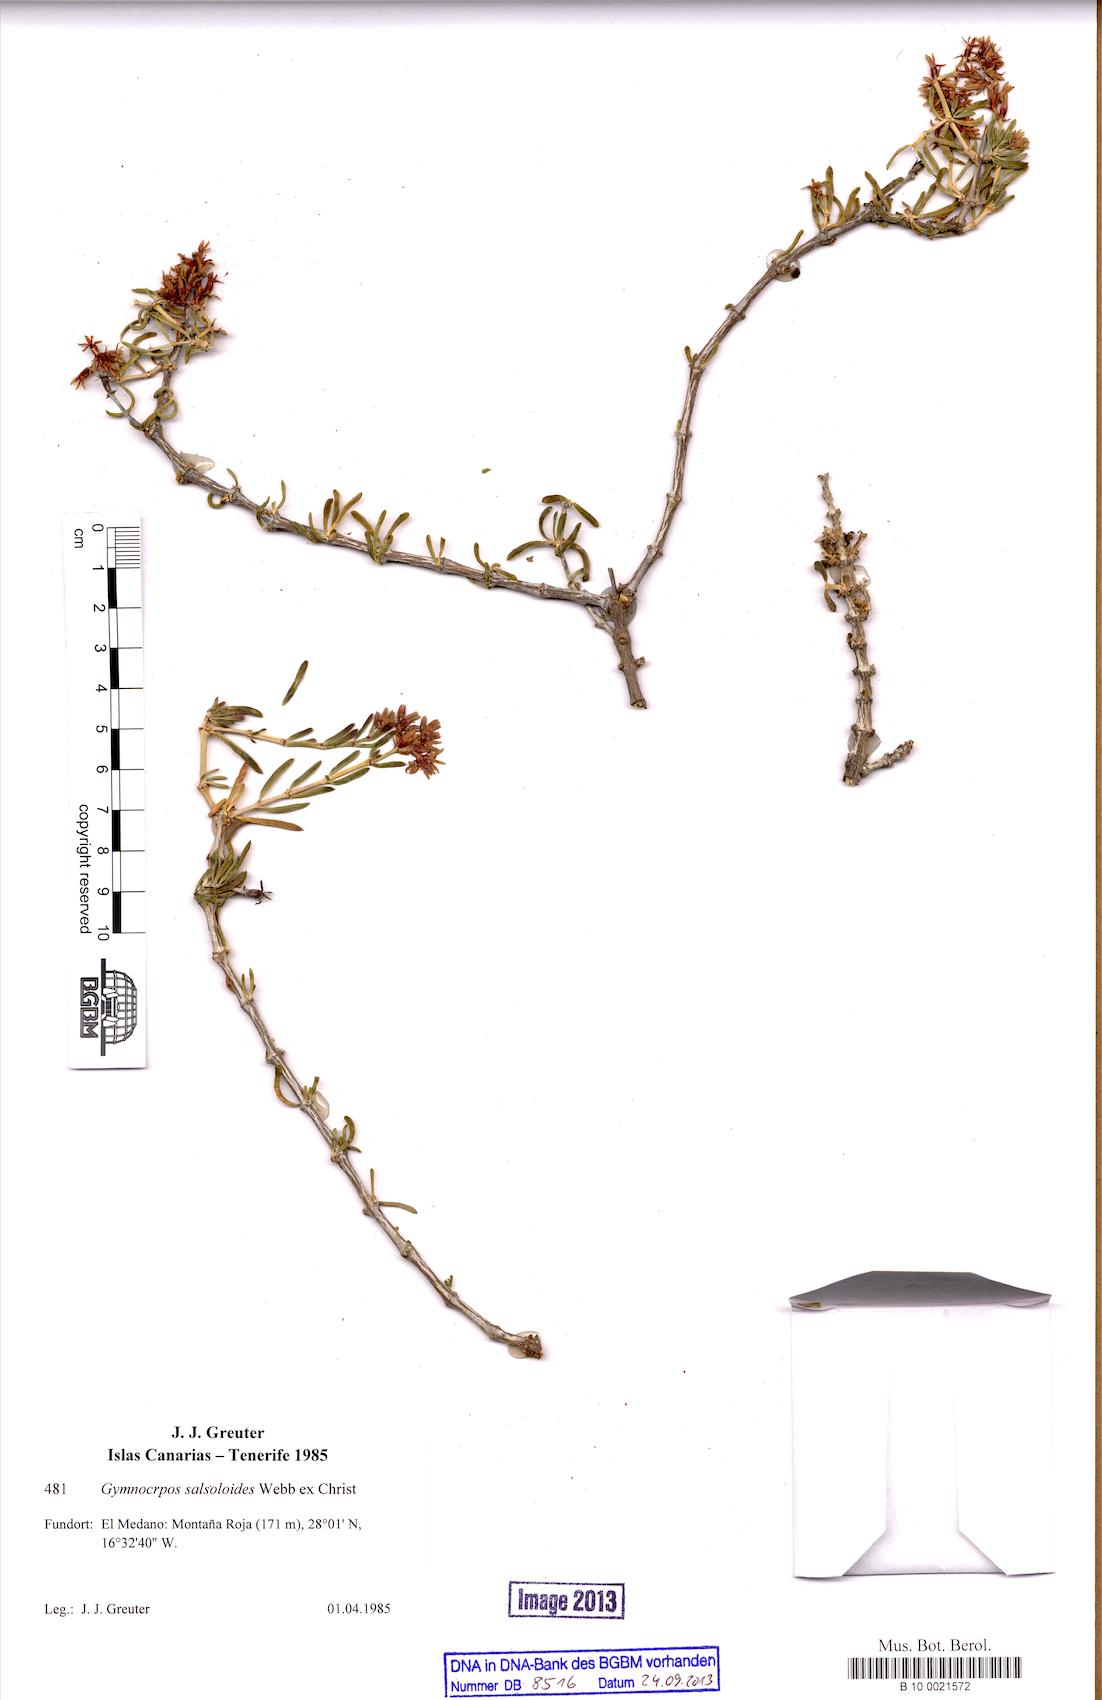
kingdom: Plantae
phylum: Tracheophyta
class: Magnoliopsida
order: Caryophyllales
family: Caryophyllaceae
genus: Gymnocarpos
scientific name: Gymnocarpos decander
